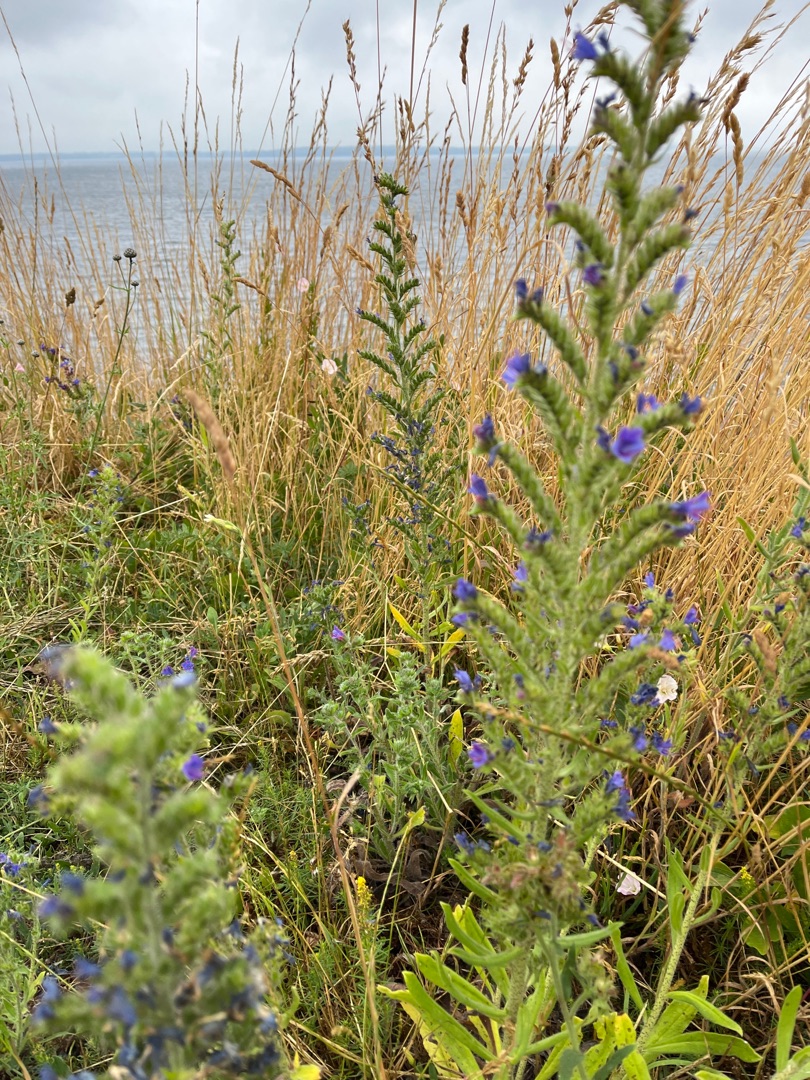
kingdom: Plantae
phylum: Tracheophyta
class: Magnoliopsida
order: Boraginales
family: Boraginaceae
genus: Echium
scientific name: Echium vulgare
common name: Slangehoved
